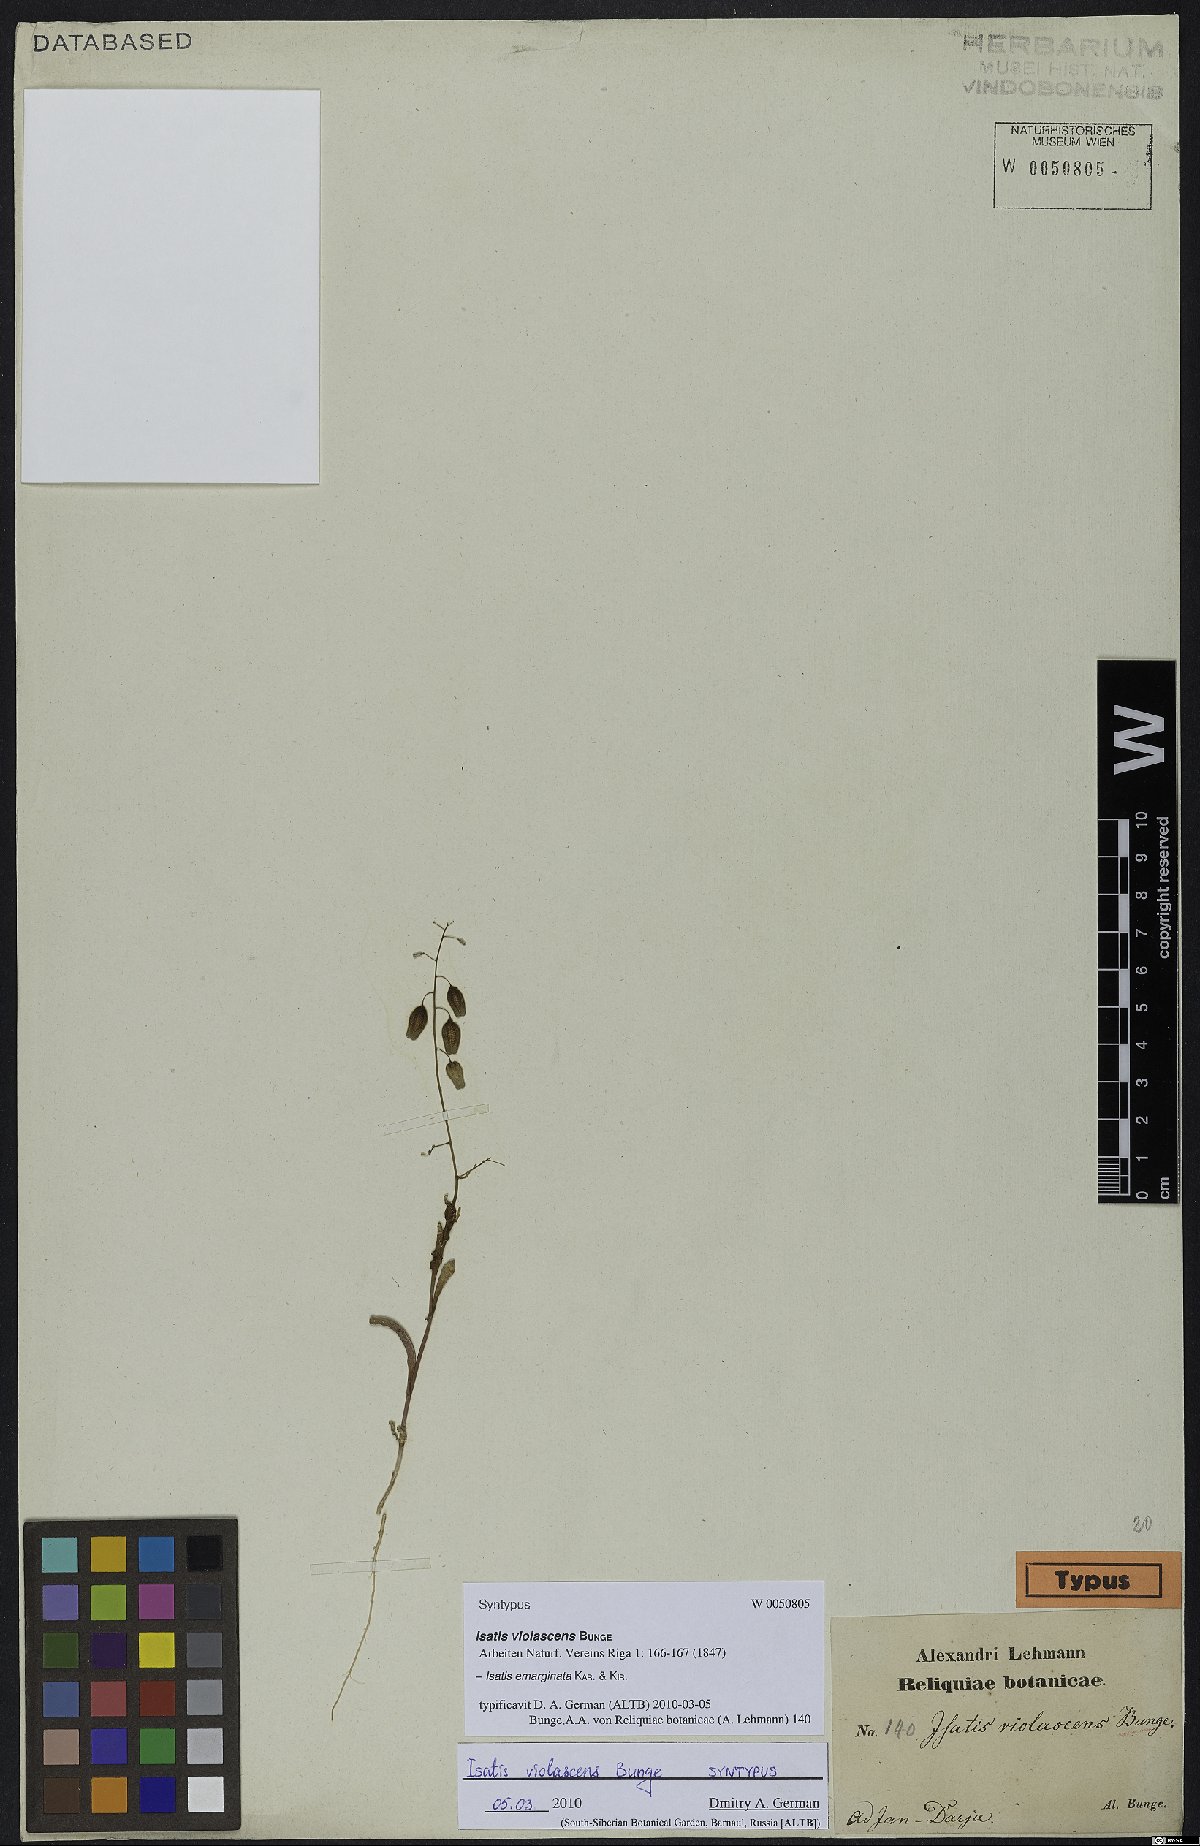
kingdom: Plantae
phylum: Tracheophyta
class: Magnoliopsida
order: Brassicales
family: Brassicaceae
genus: Isatis
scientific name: Isatis emarginata
